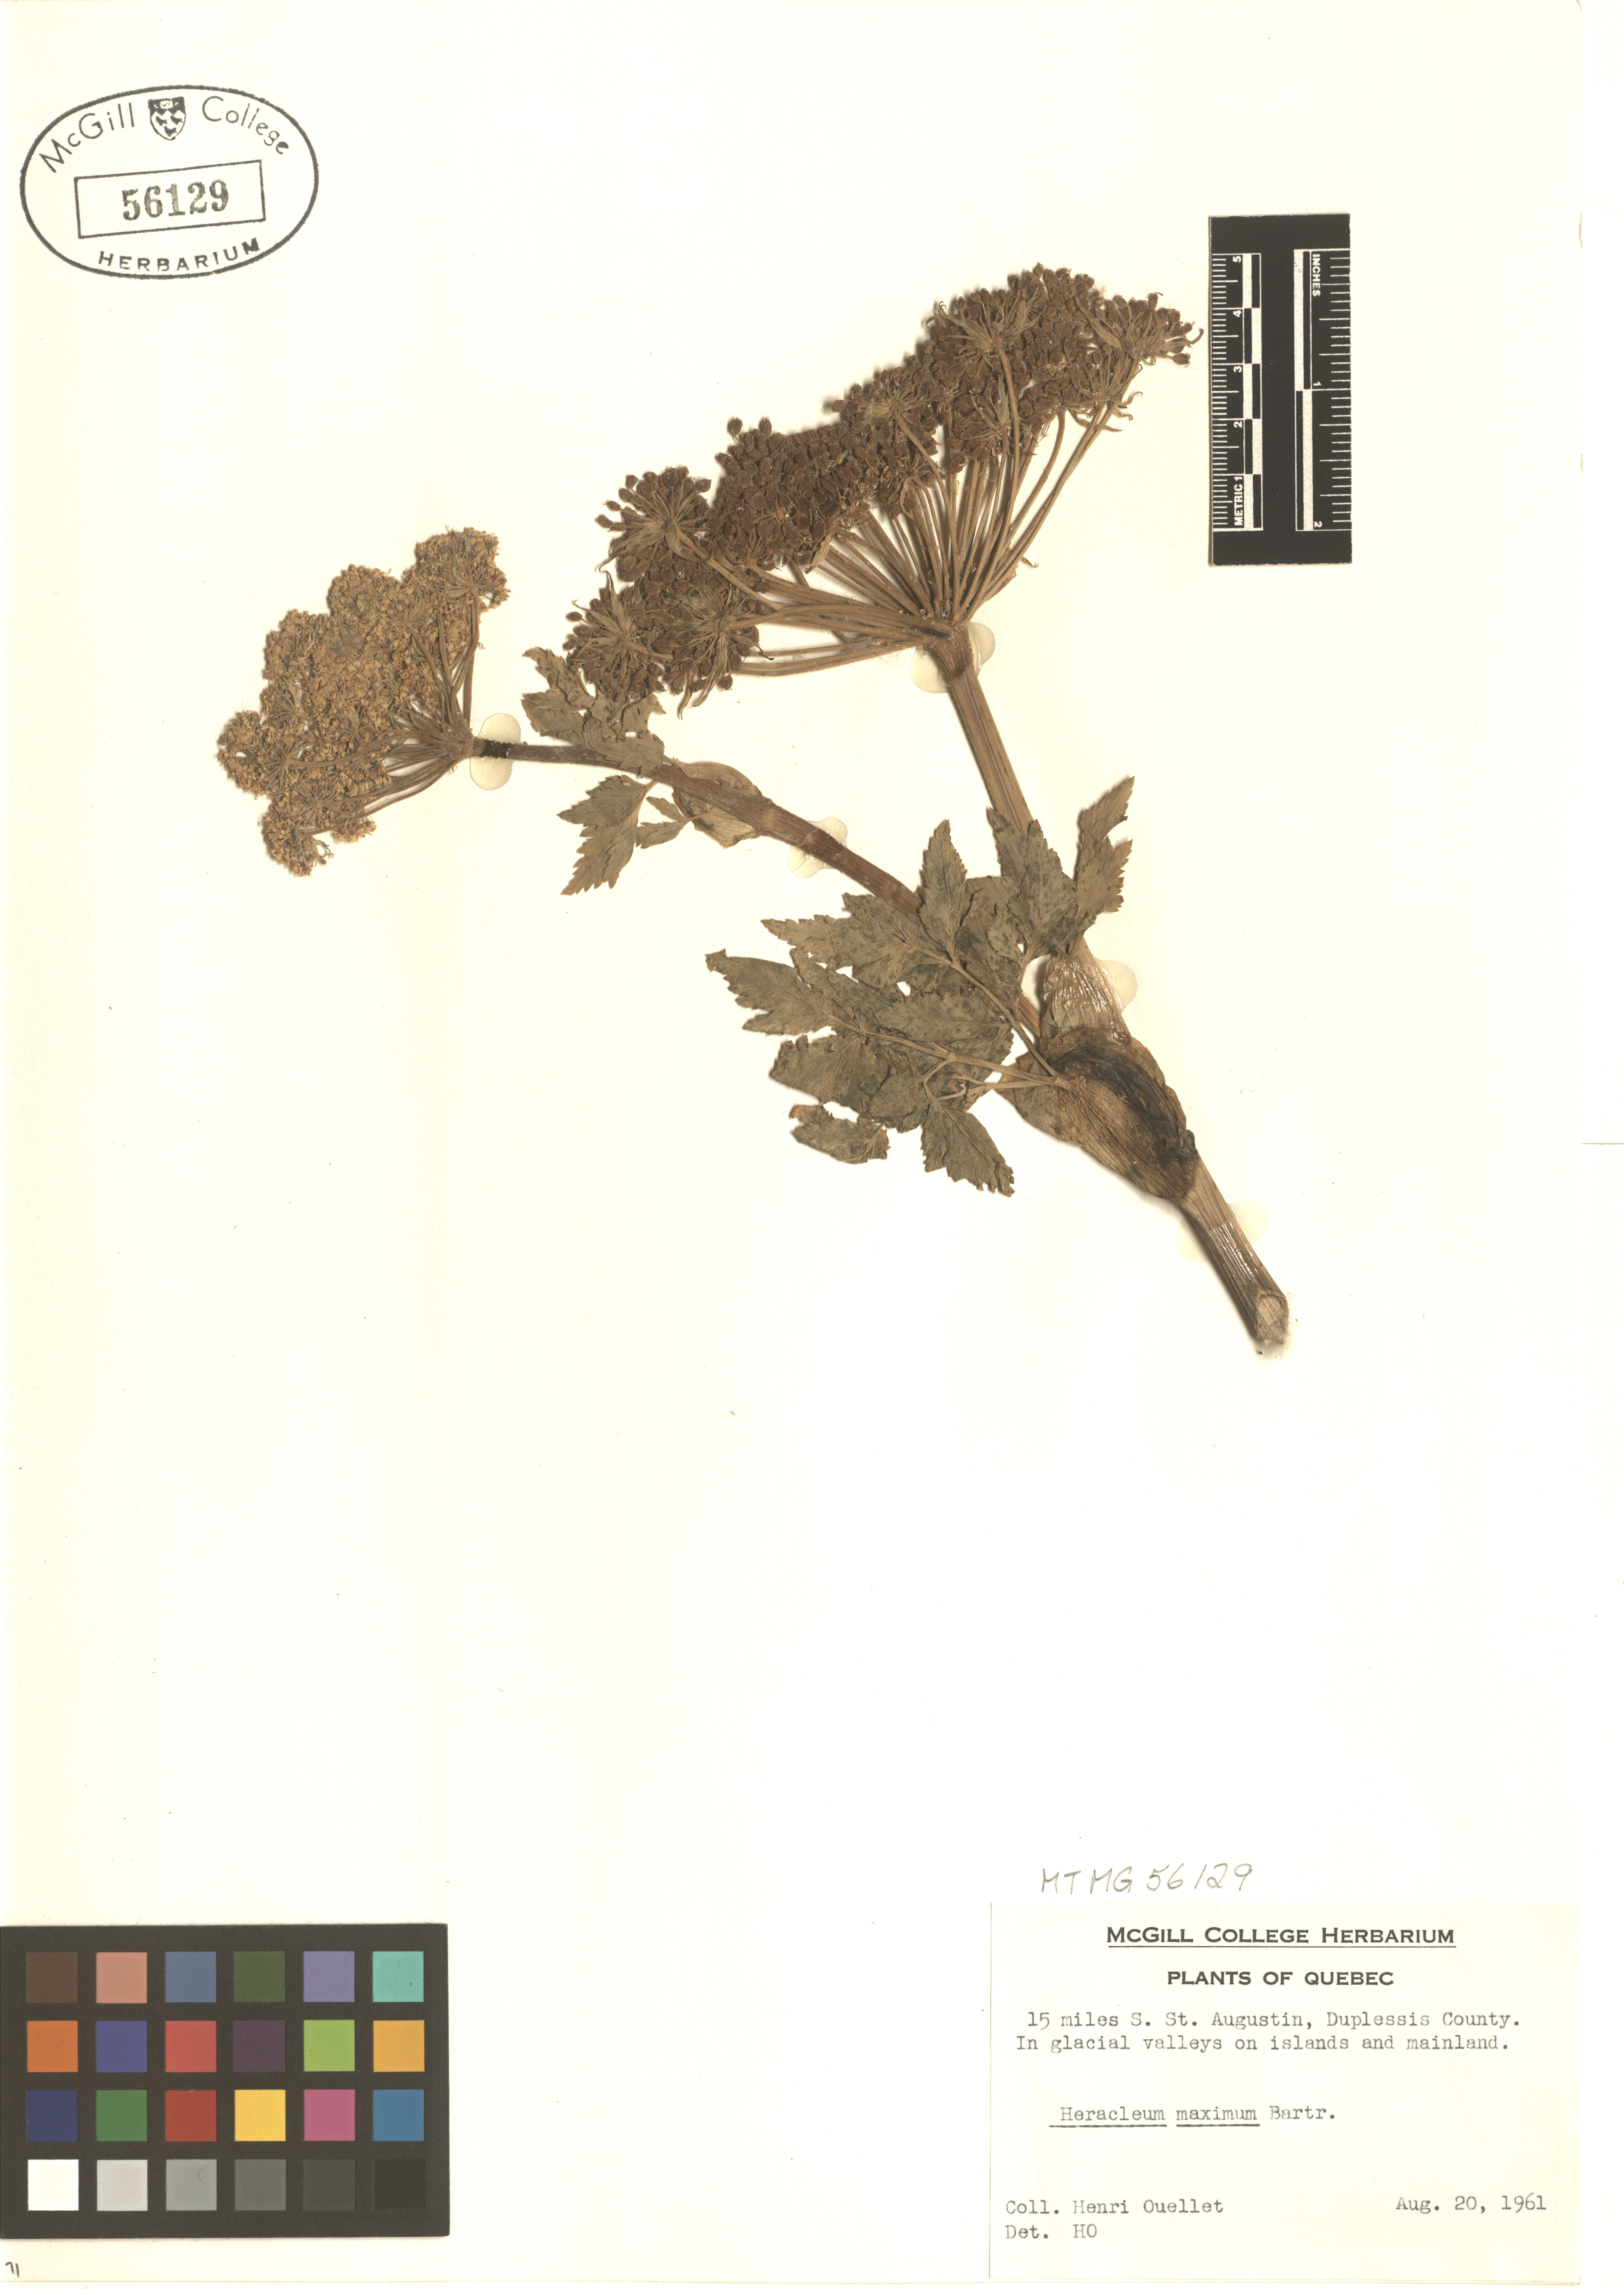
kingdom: Plantae
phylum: Tracheophyta
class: Magnoliopsida
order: Apiales
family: Apiaceae
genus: Heracleum
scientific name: Heracleum maximum
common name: American cow parsnip
